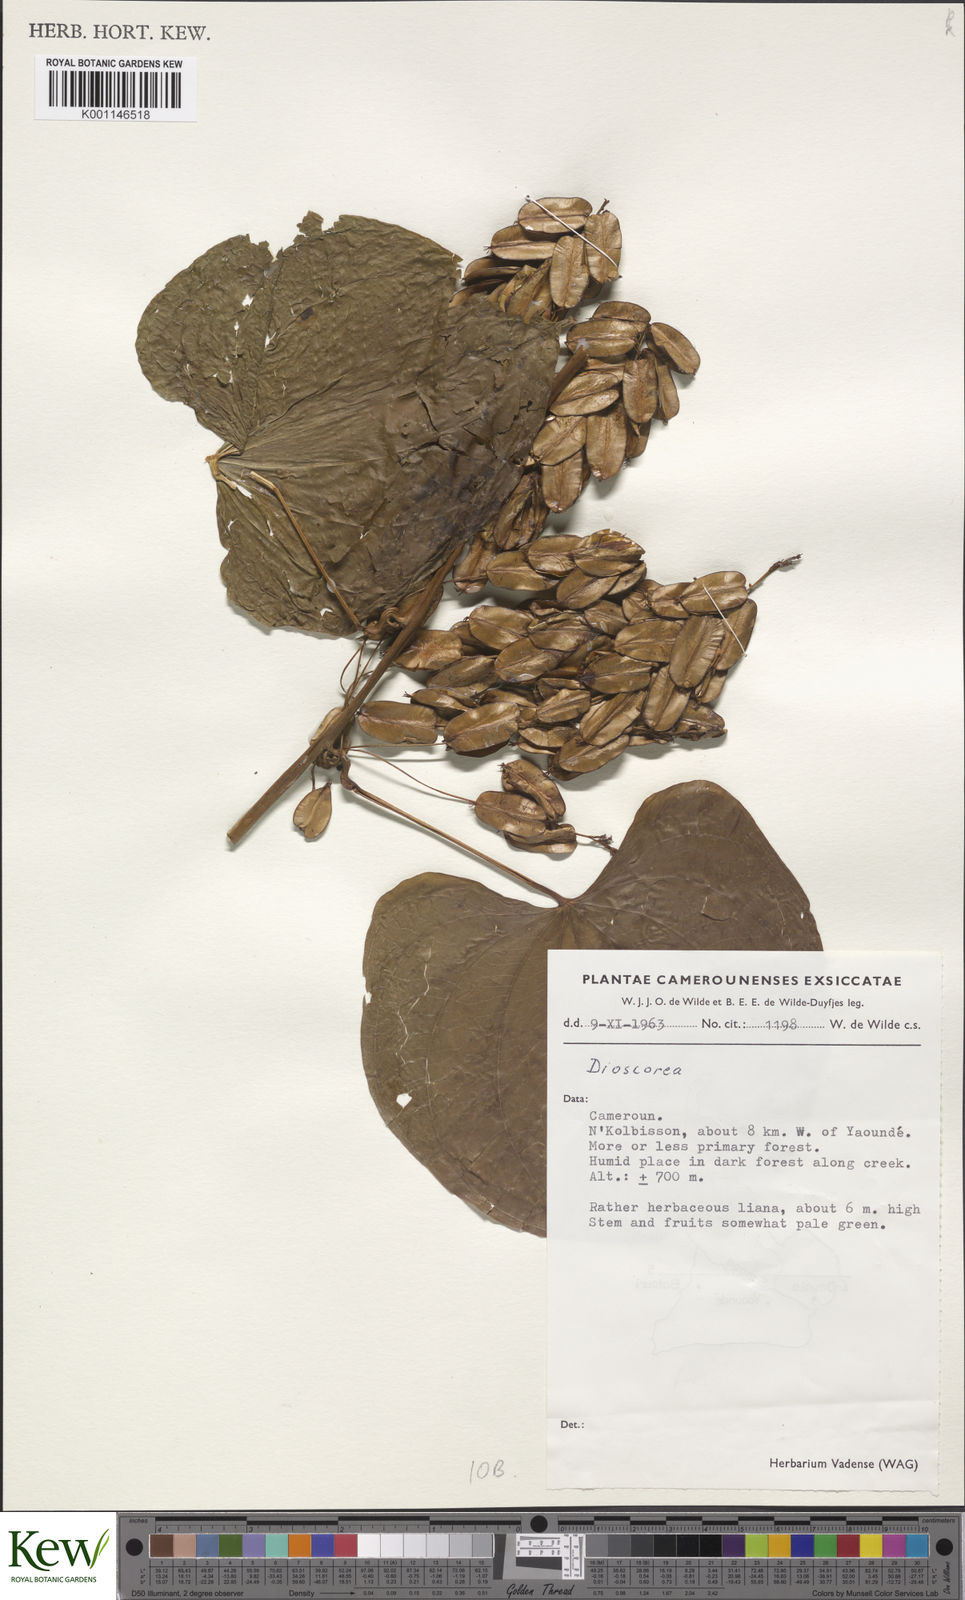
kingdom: Plantae
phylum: Tracheophyta
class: Liliopsida
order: Dioscoreales
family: Dioscoreaceae
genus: Dioscorea
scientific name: Dioscorea
